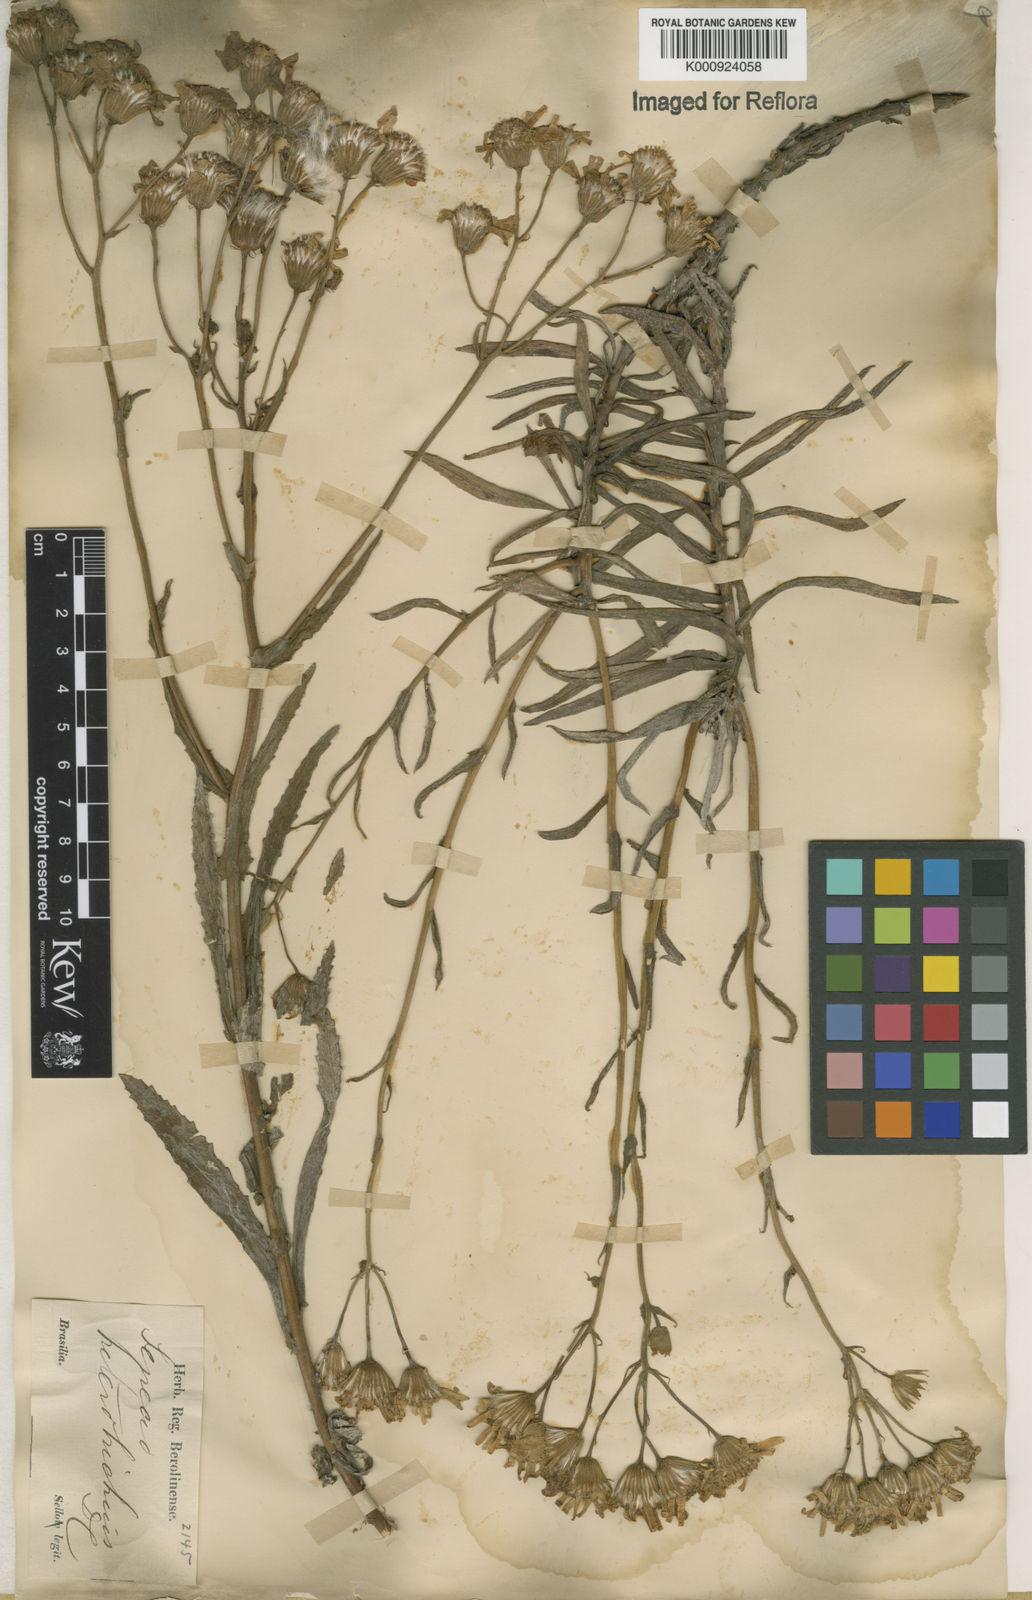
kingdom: Plantae
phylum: Tracheophyta
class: Magnoliopsida
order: Asterales
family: Asteraceae
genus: Senecio
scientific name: Senecio heterotrichius
